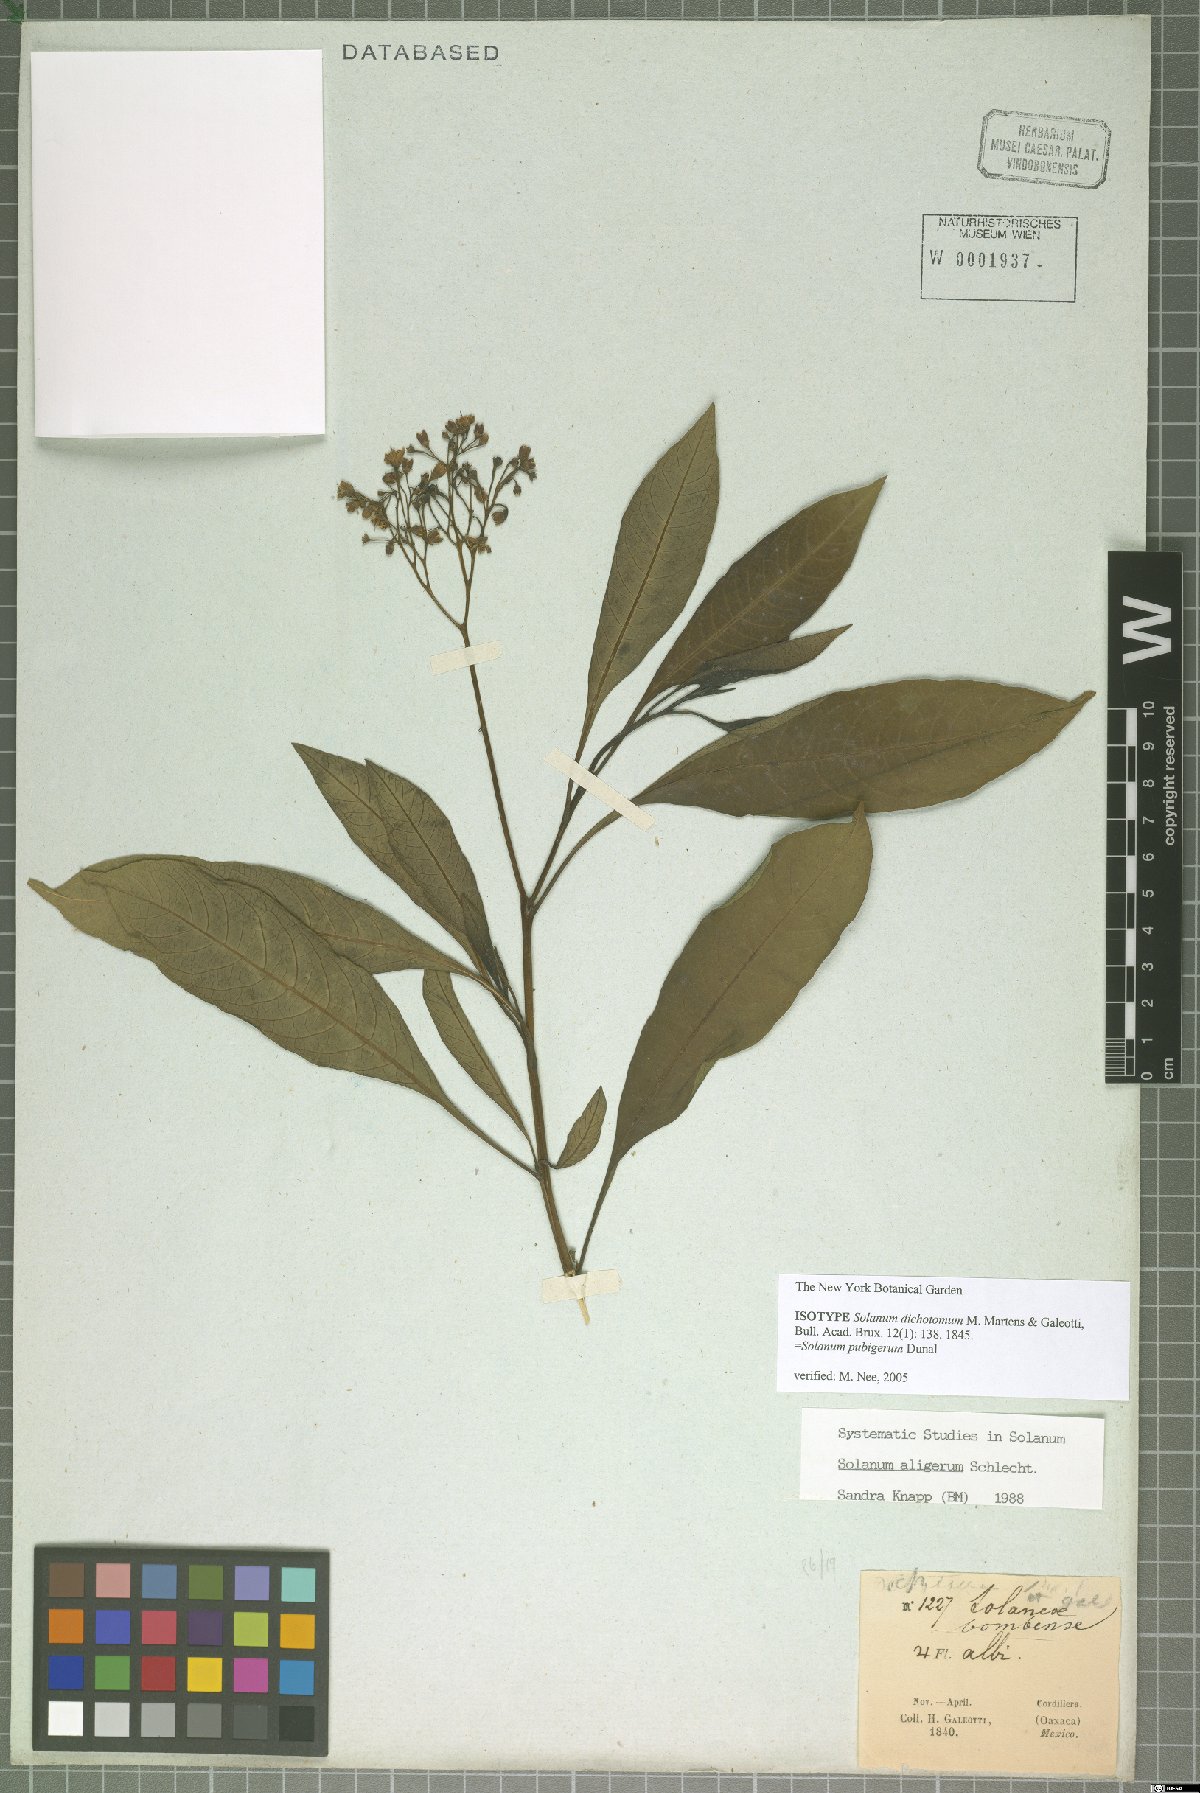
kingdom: Plantae
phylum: Tracheophyta
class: Magnoliopsida
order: Solanales
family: Solanaceae
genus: Solanum
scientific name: Solanum pubigerum
